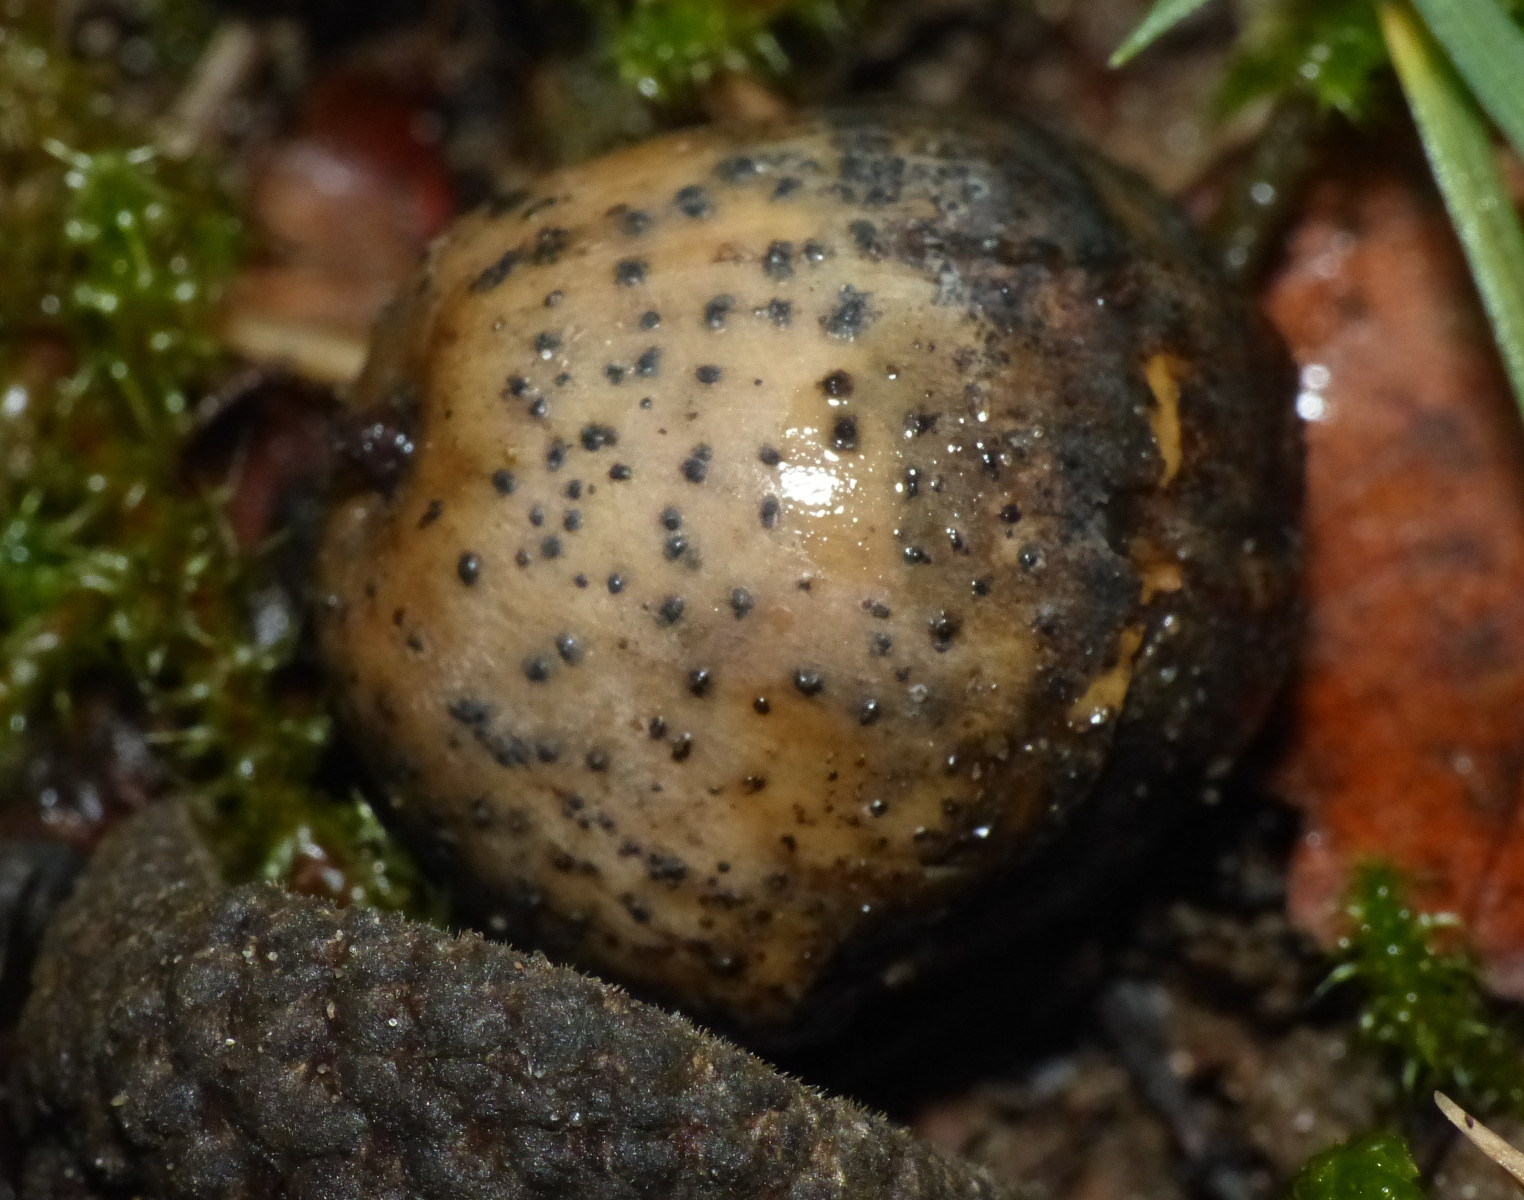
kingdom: Fungi
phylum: Ascomycota
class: Sordariomycetes
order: Diaporthales
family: Diaporthaceae
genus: Phomopsis
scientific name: Phomopsis glandicola
